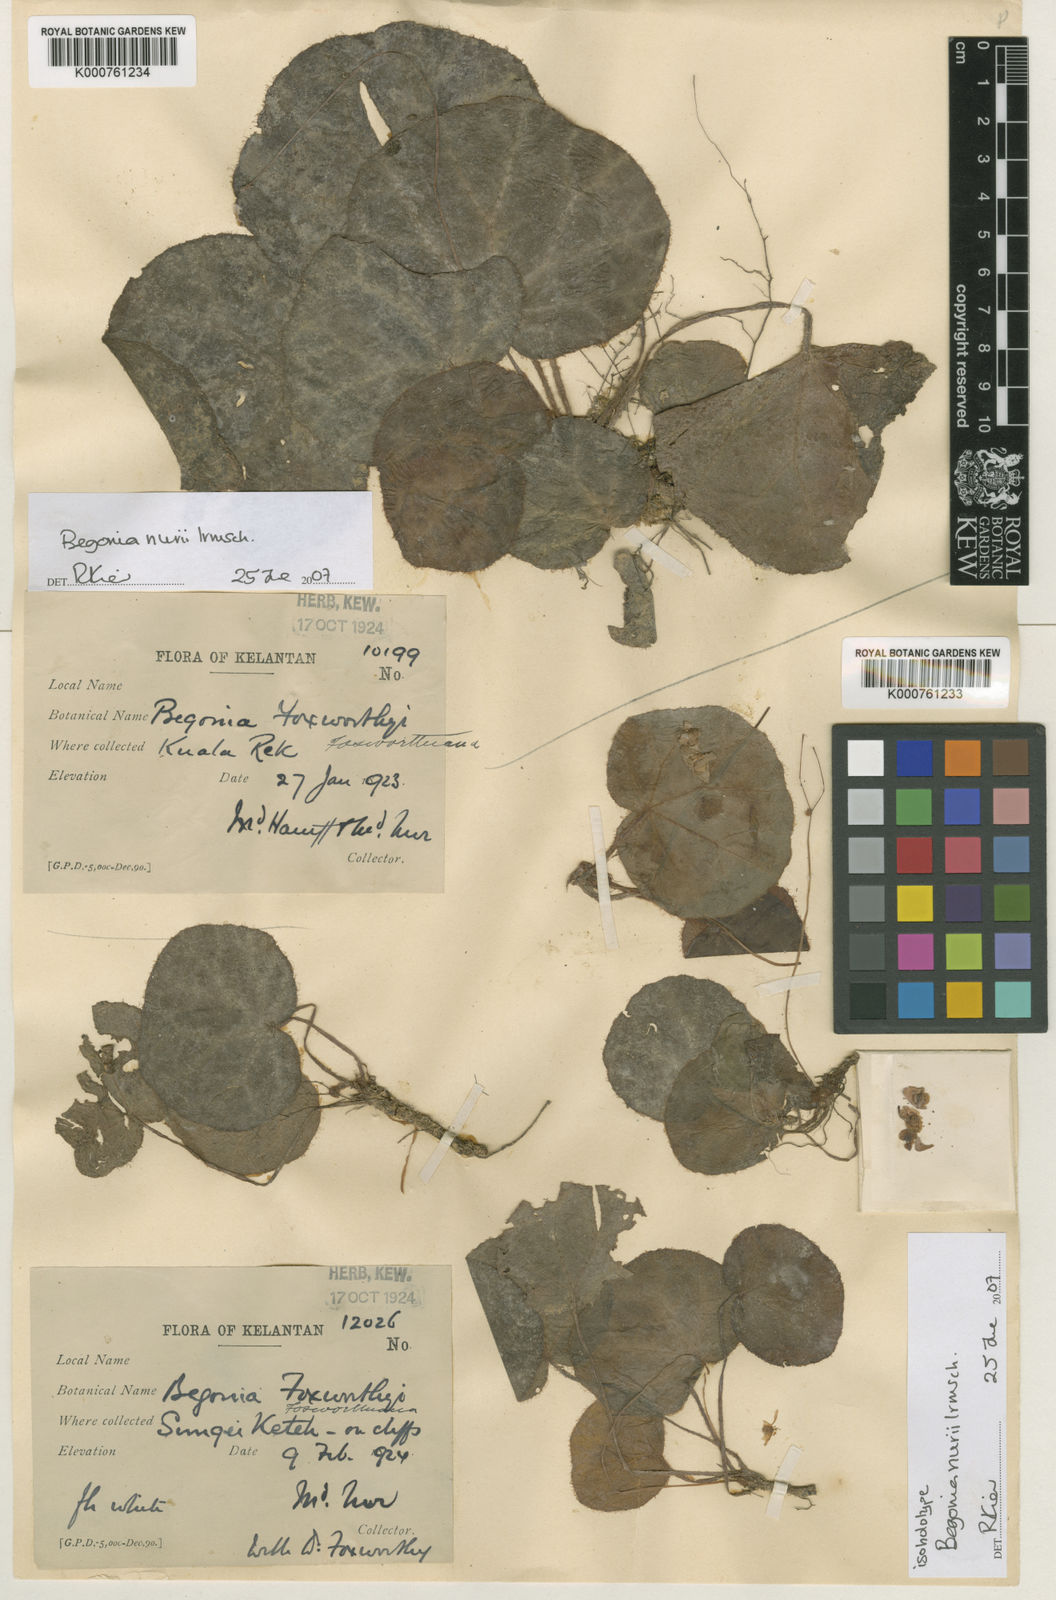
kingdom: Plantae
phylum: Tracheophyta
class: Magnoliopsida
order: Cucurbitales
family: Begoniaceae
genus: Begonia
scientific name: Begonia nurii
